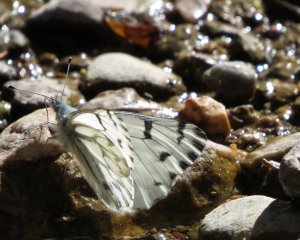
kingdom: Animalia
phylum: Arthropoda
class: Insecta
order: Lepidoptera
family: Pieridae
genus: Pontia
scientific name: Pontia protodice
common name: Checkered White
